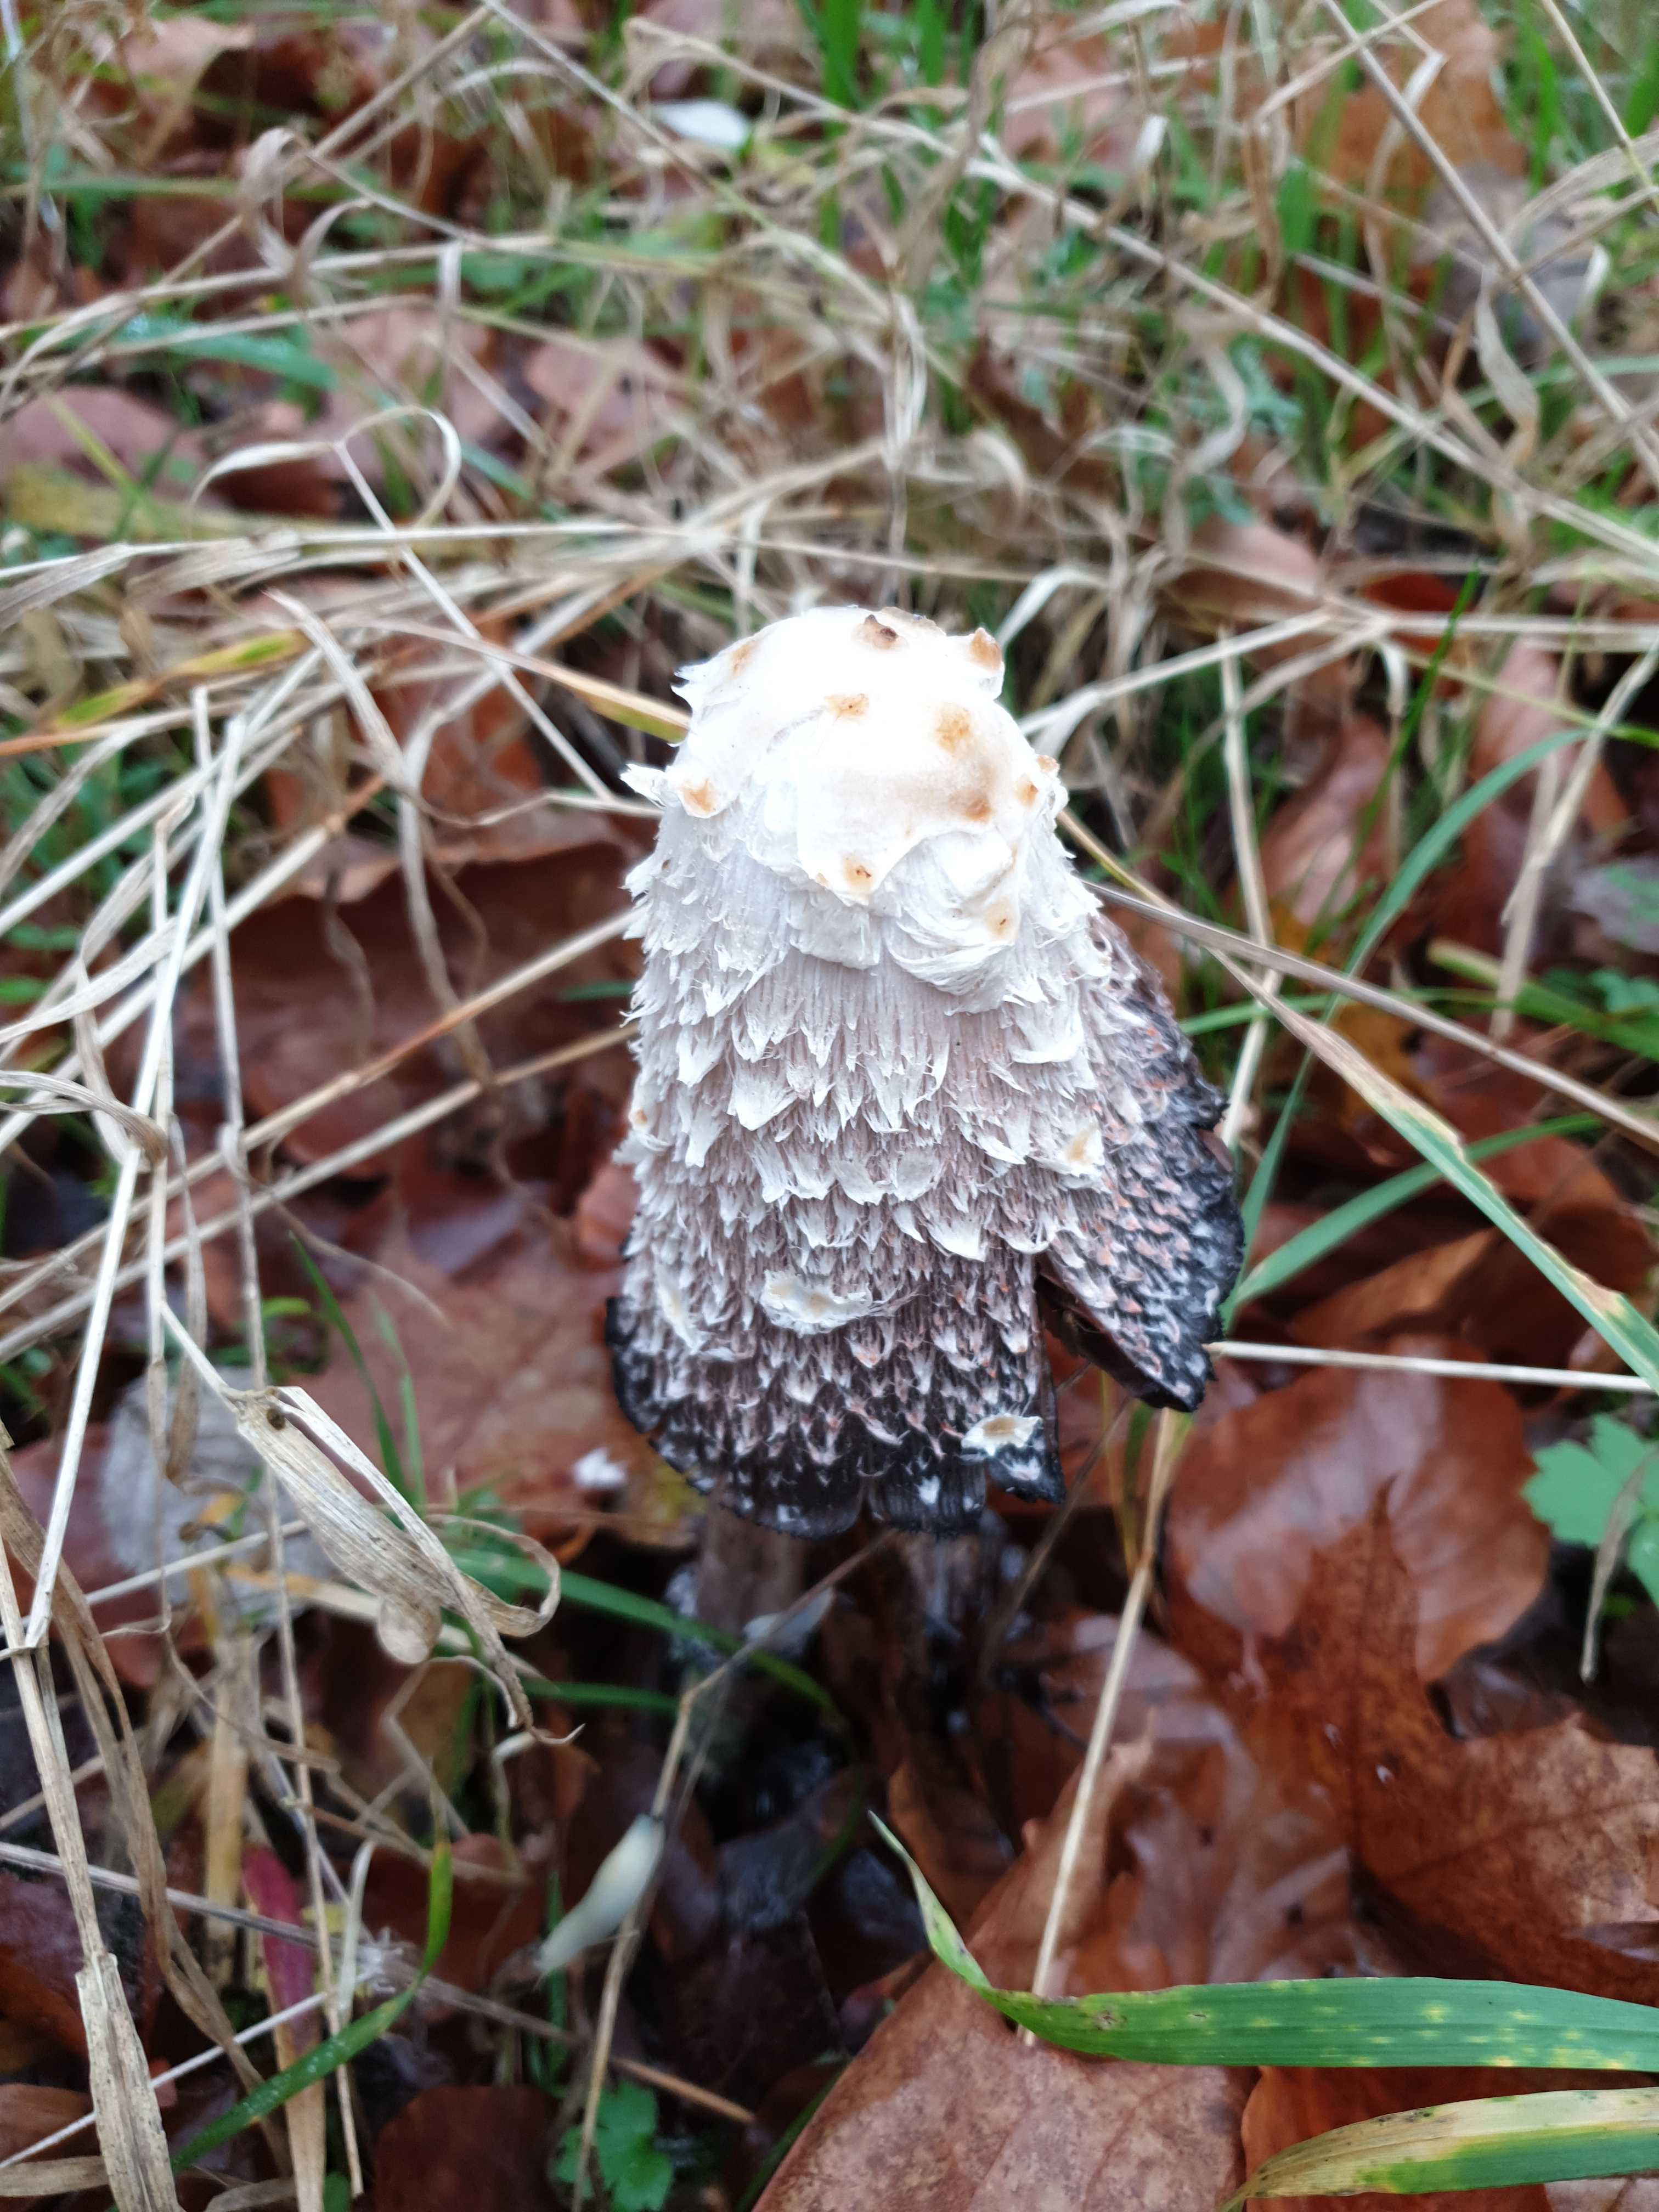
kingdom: Fungi
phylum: Basidiomycota
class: Agaricomycetes
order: Agaricales
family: Agaricaceae
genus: Coprinus
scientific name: Coprinus comatus
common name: stor parykhat
